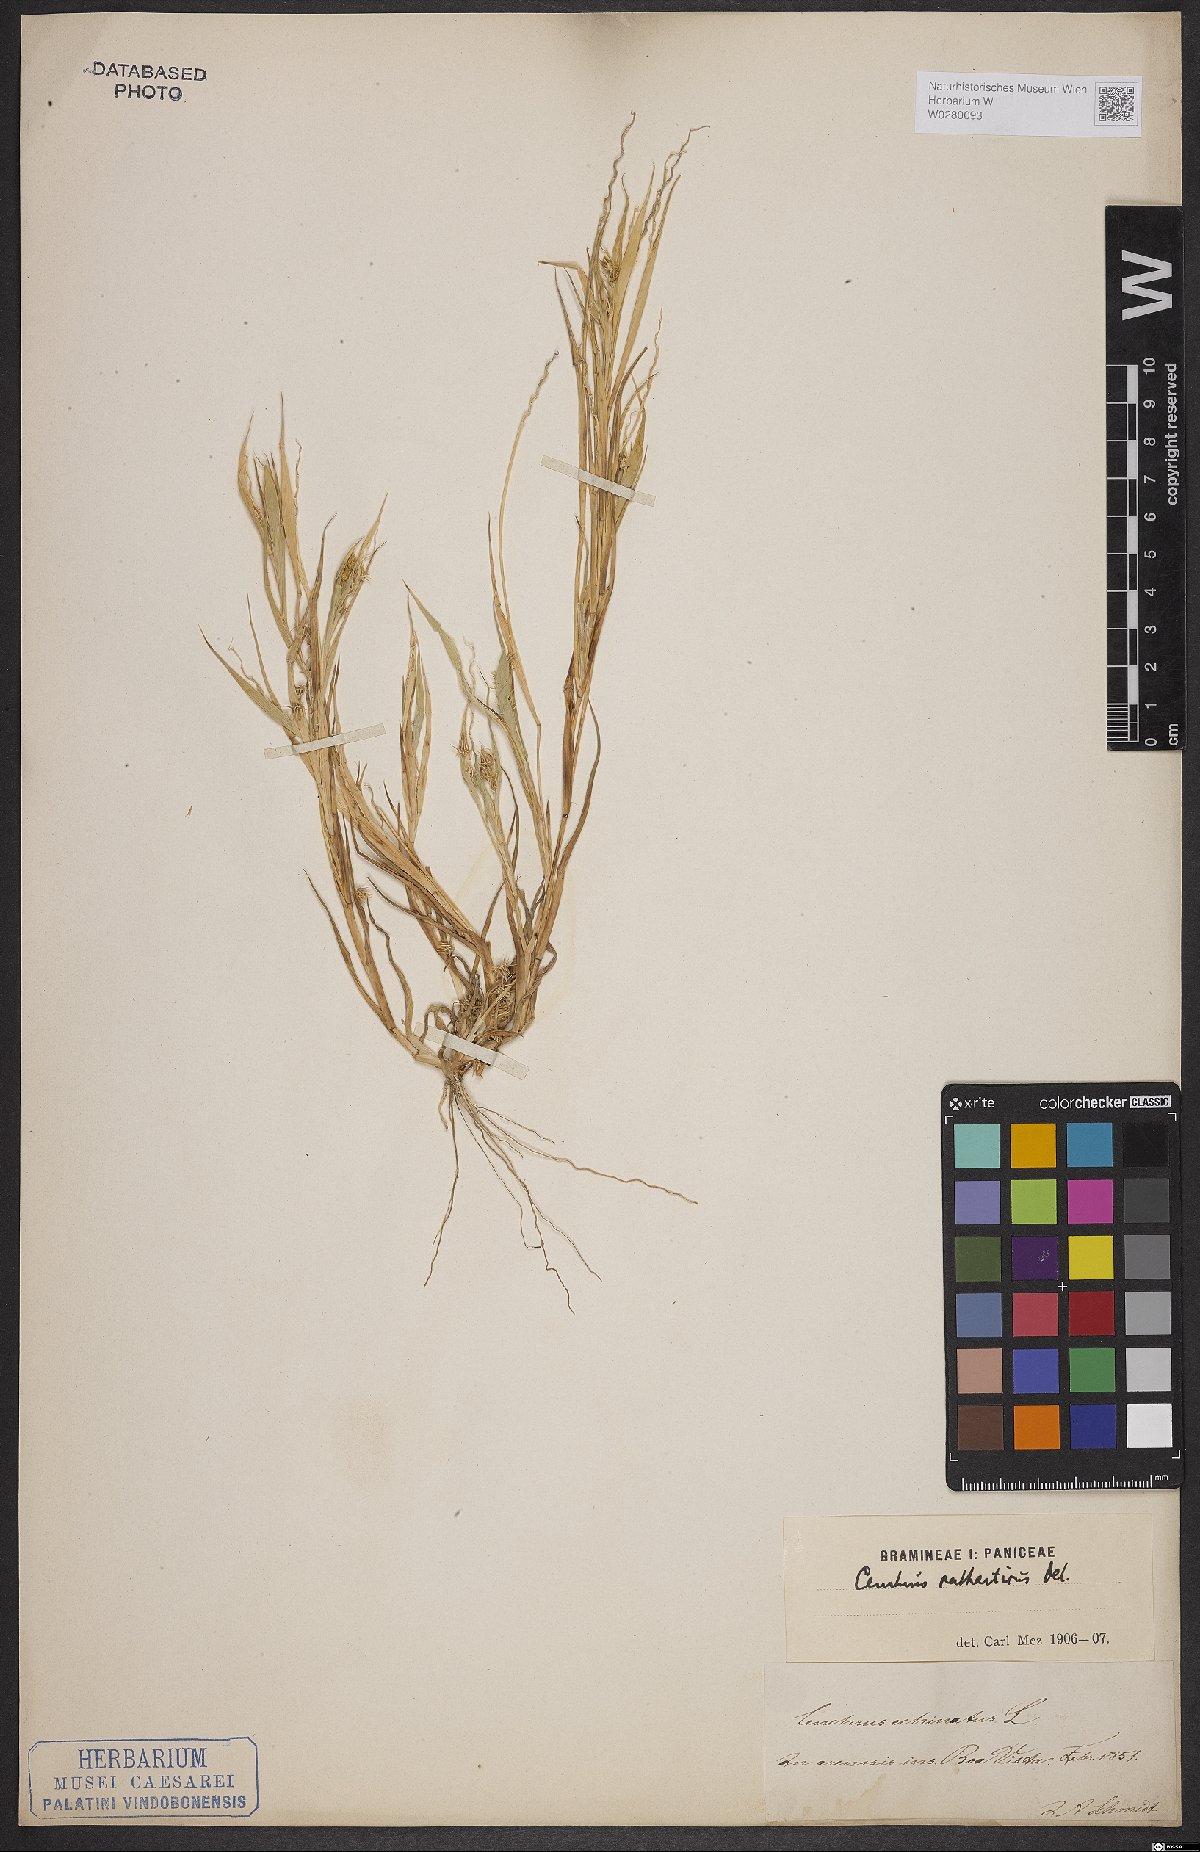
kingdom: Plantae
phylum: Tracheophyta
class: Liliopsida
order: Poales
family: Poaceae
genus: Cenchrus
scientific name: Cenchrus biflorus
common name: Indian sandbur
